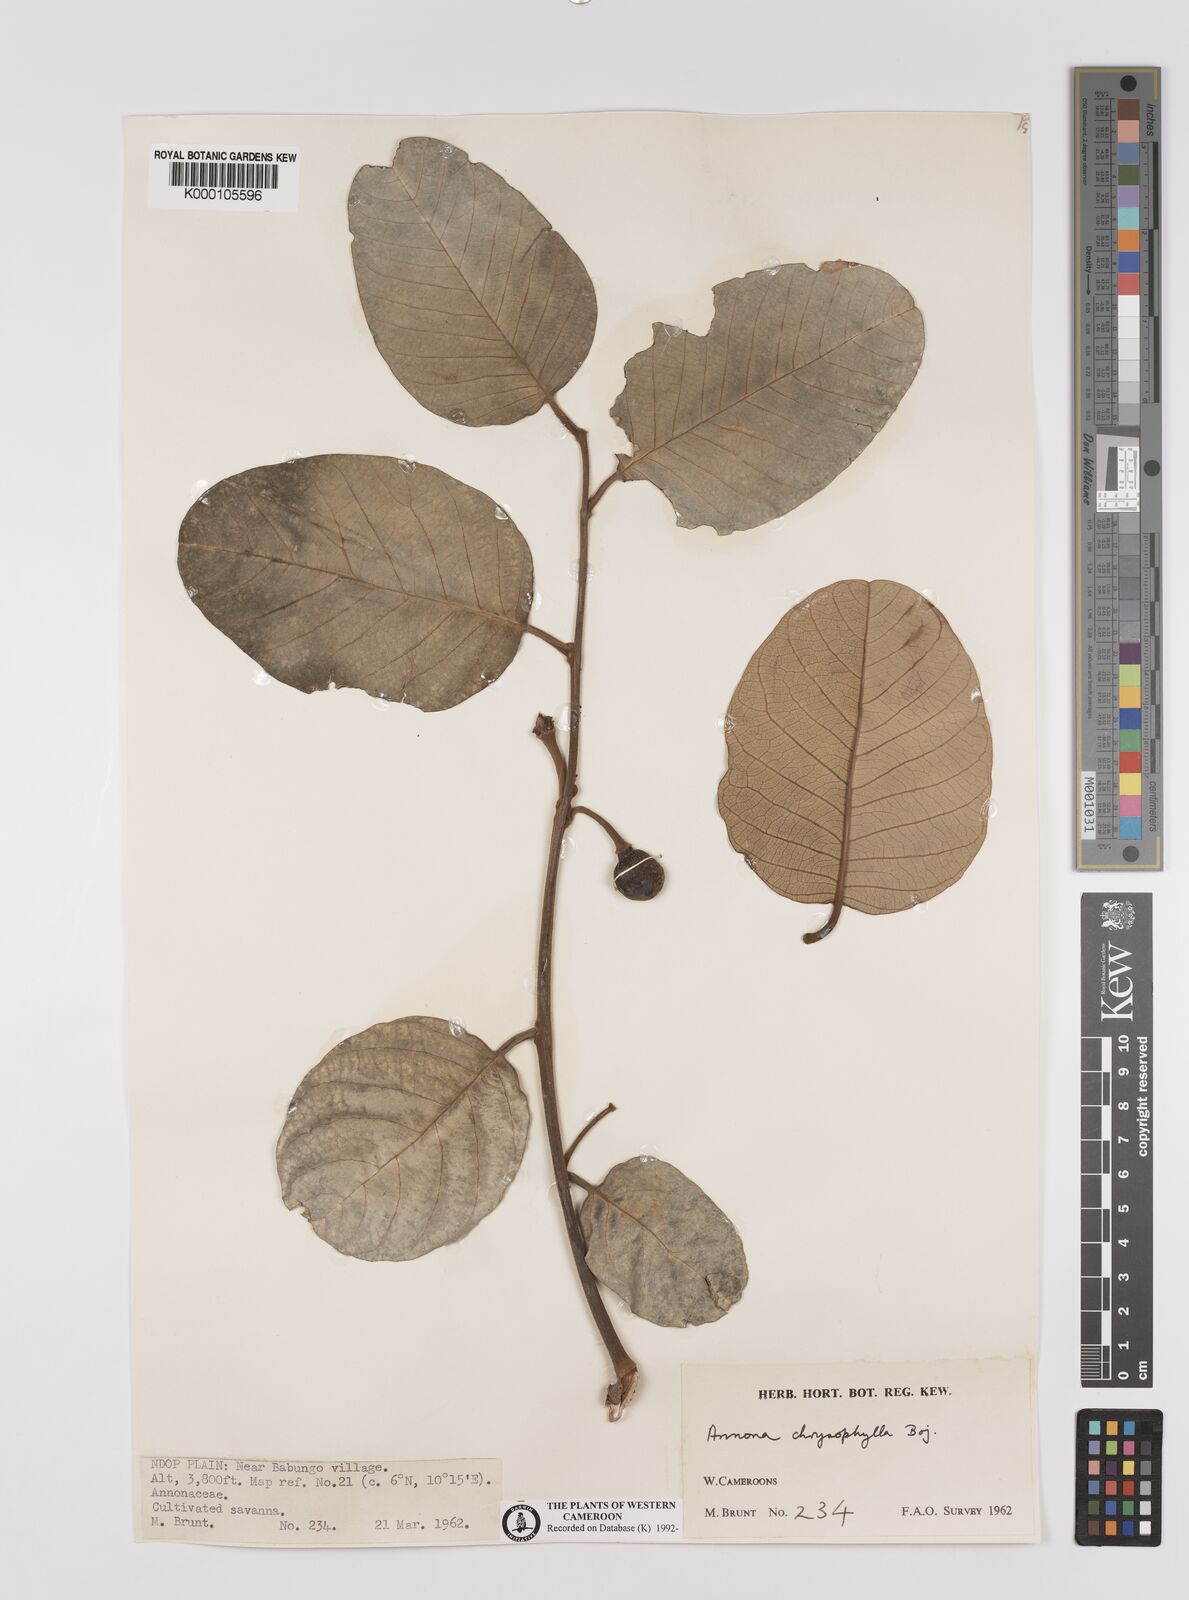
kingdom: Plantae
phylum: Tracheophyta
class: Magnoliopsida
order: Magnoliales
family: Annonaceae
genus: Annona
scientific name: Annona senegalensis
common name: Wild custard-apple
